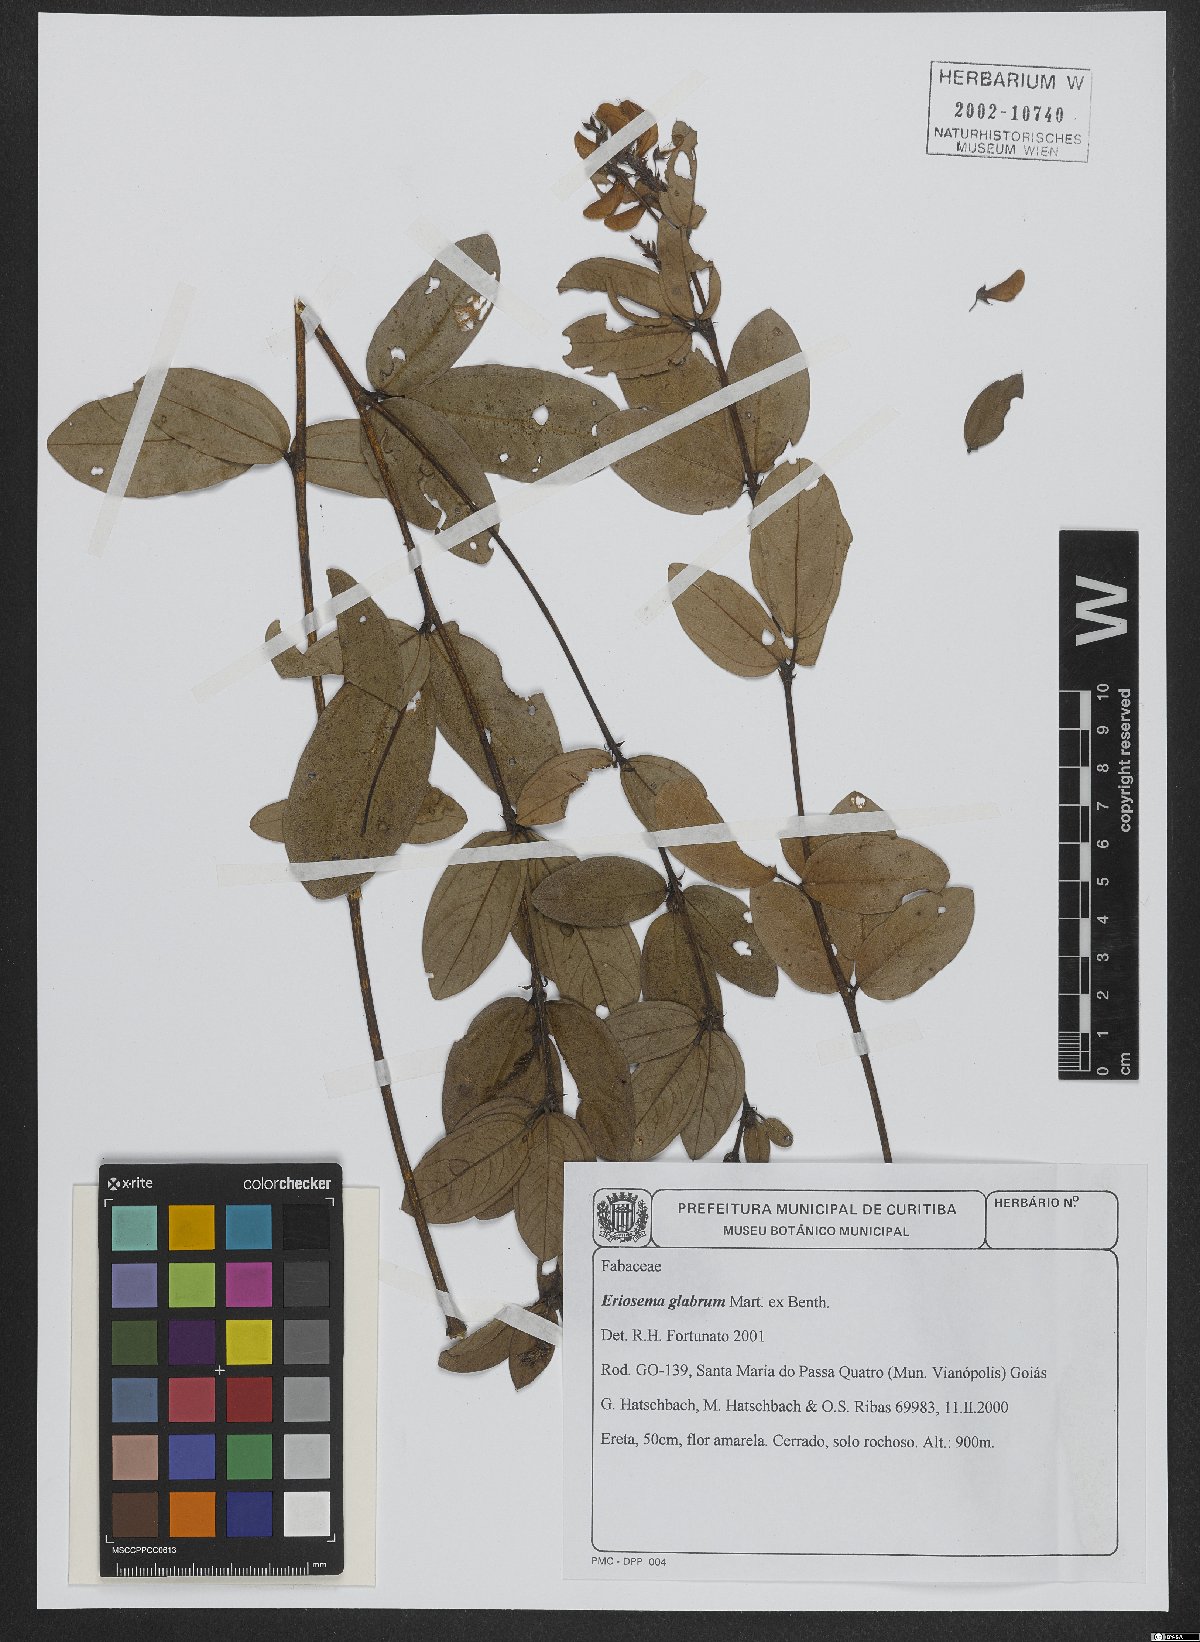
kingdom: Plantae
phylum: Tracheophyta
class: Magnoliopsida
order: Fabales
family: Fabaceae
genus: Eriosema
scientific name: Eriosema glabrum
